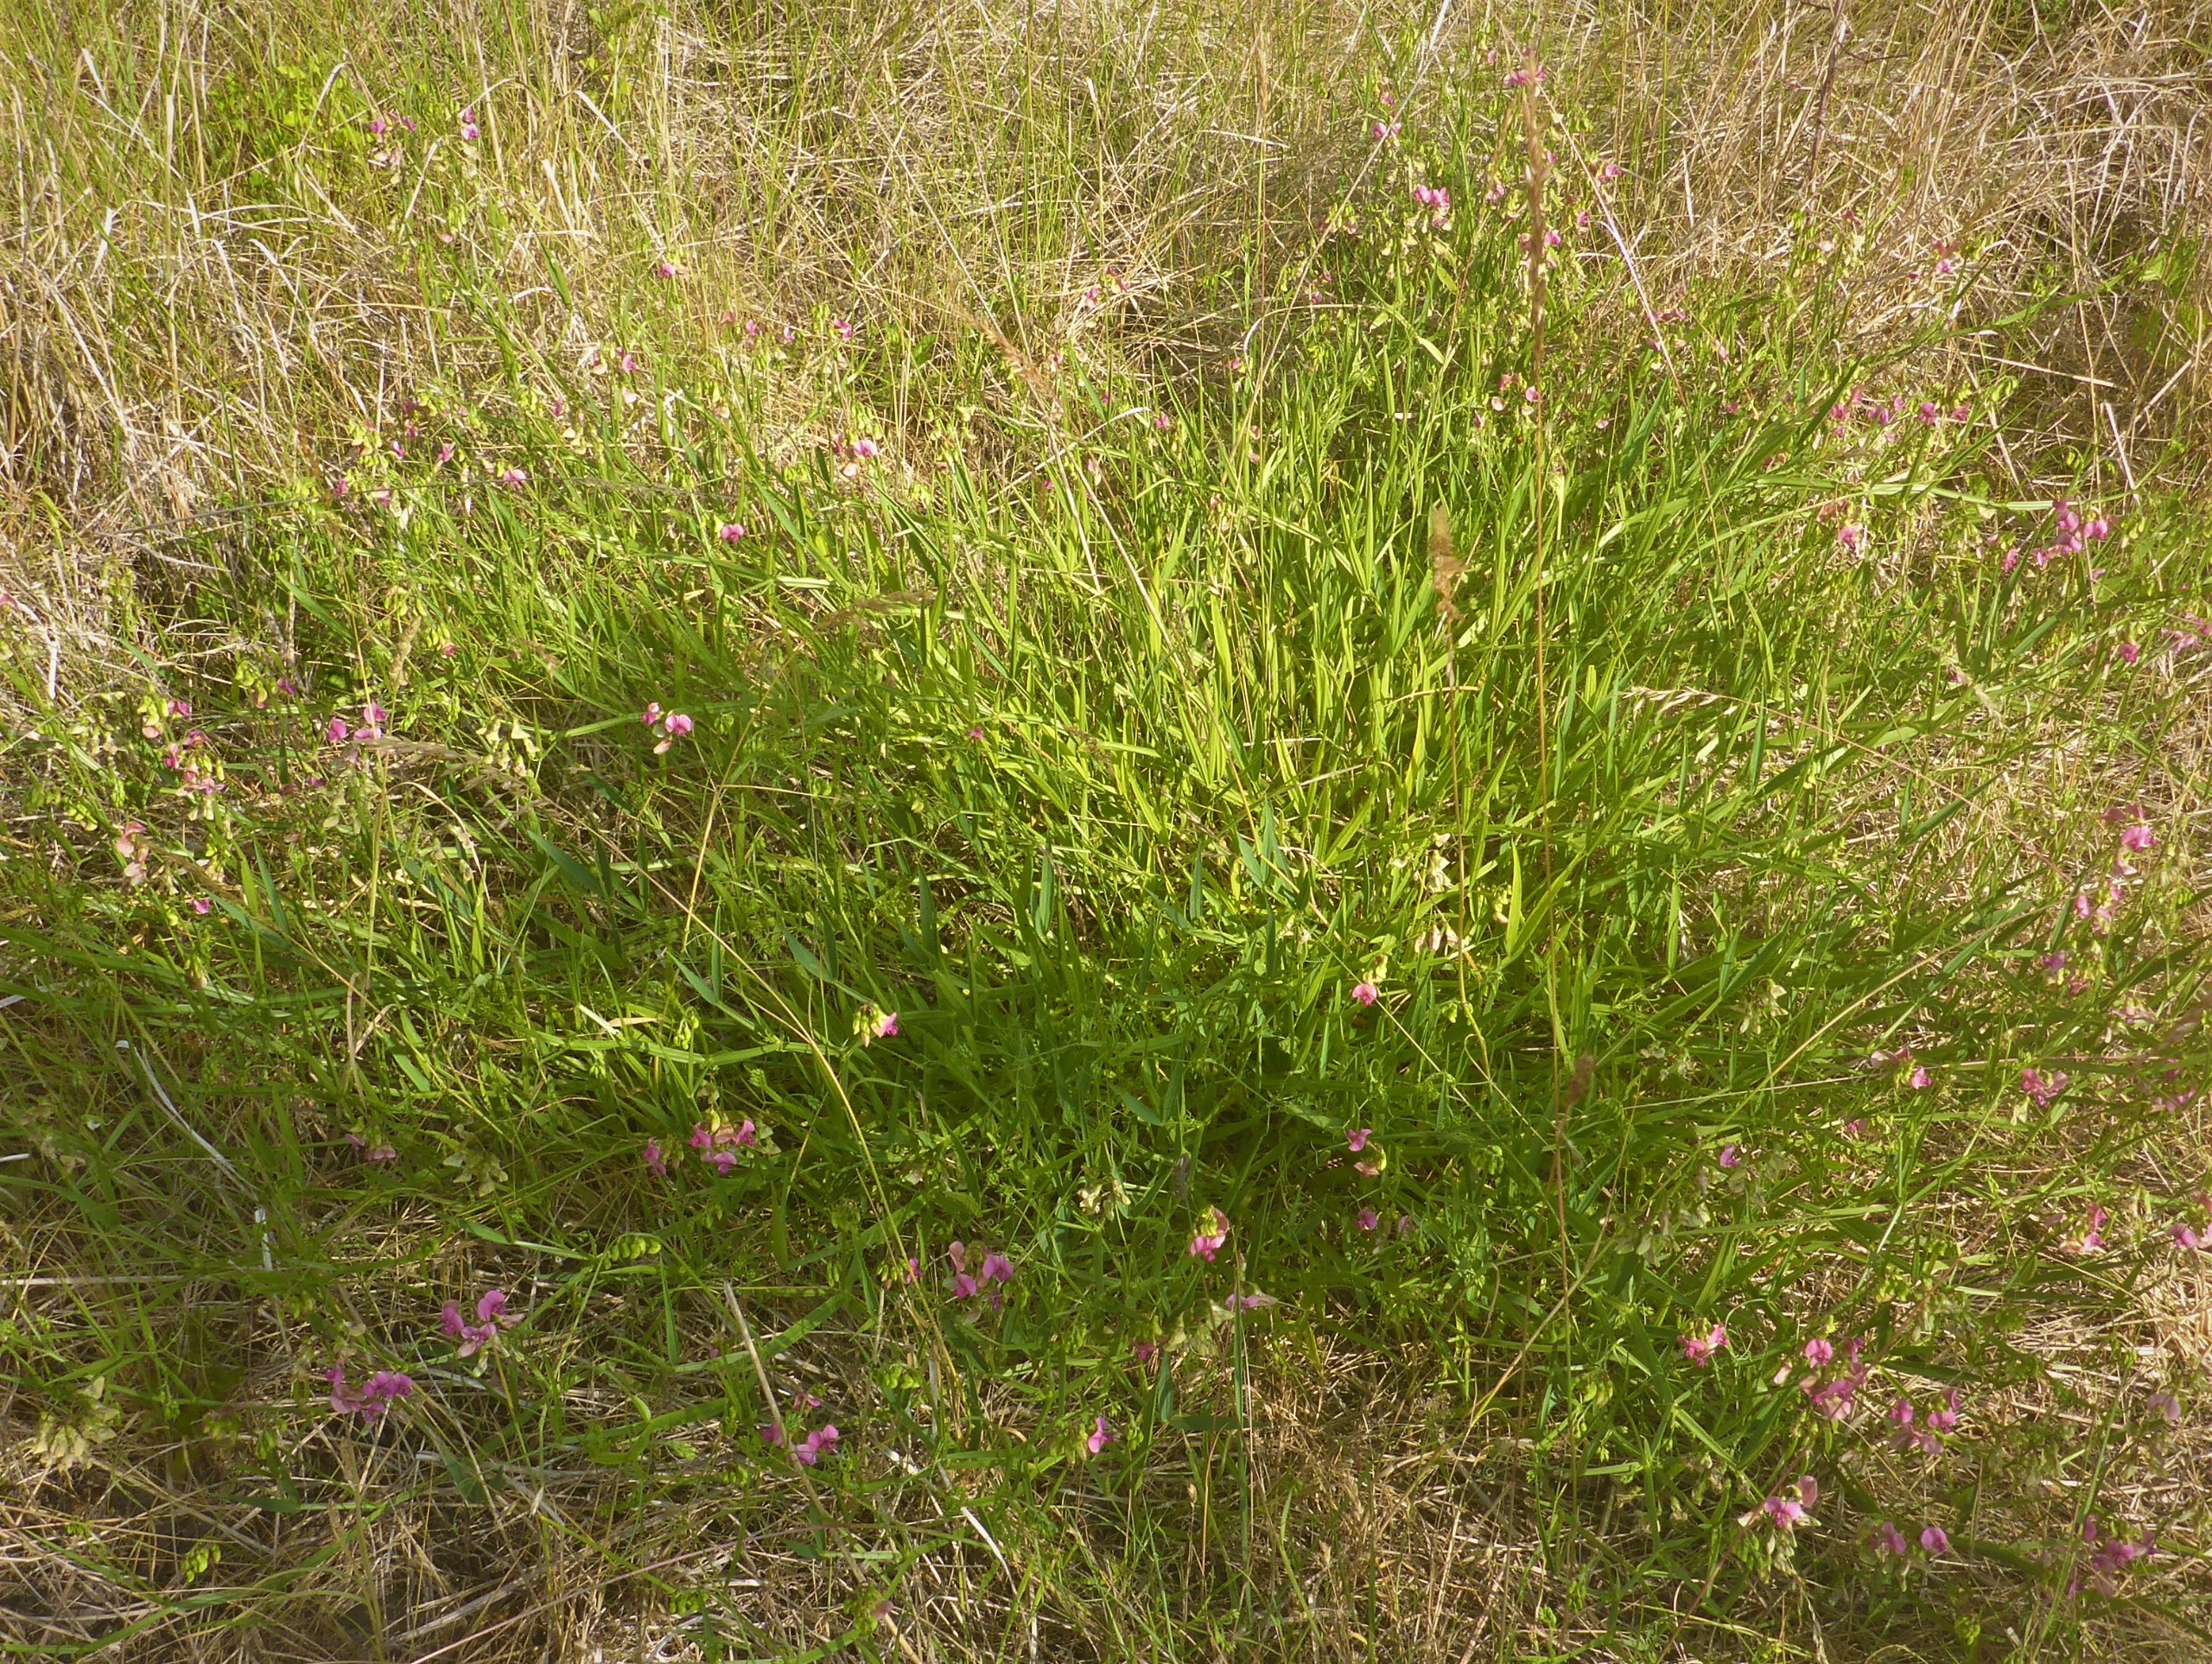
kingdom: Plantae
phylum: Tracheophyta
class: Magnoliopsida
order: Fabales
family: Fabaceae
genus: Lathyrus
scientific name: Lathyrus sylvestris
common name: Skov-fladbælg
